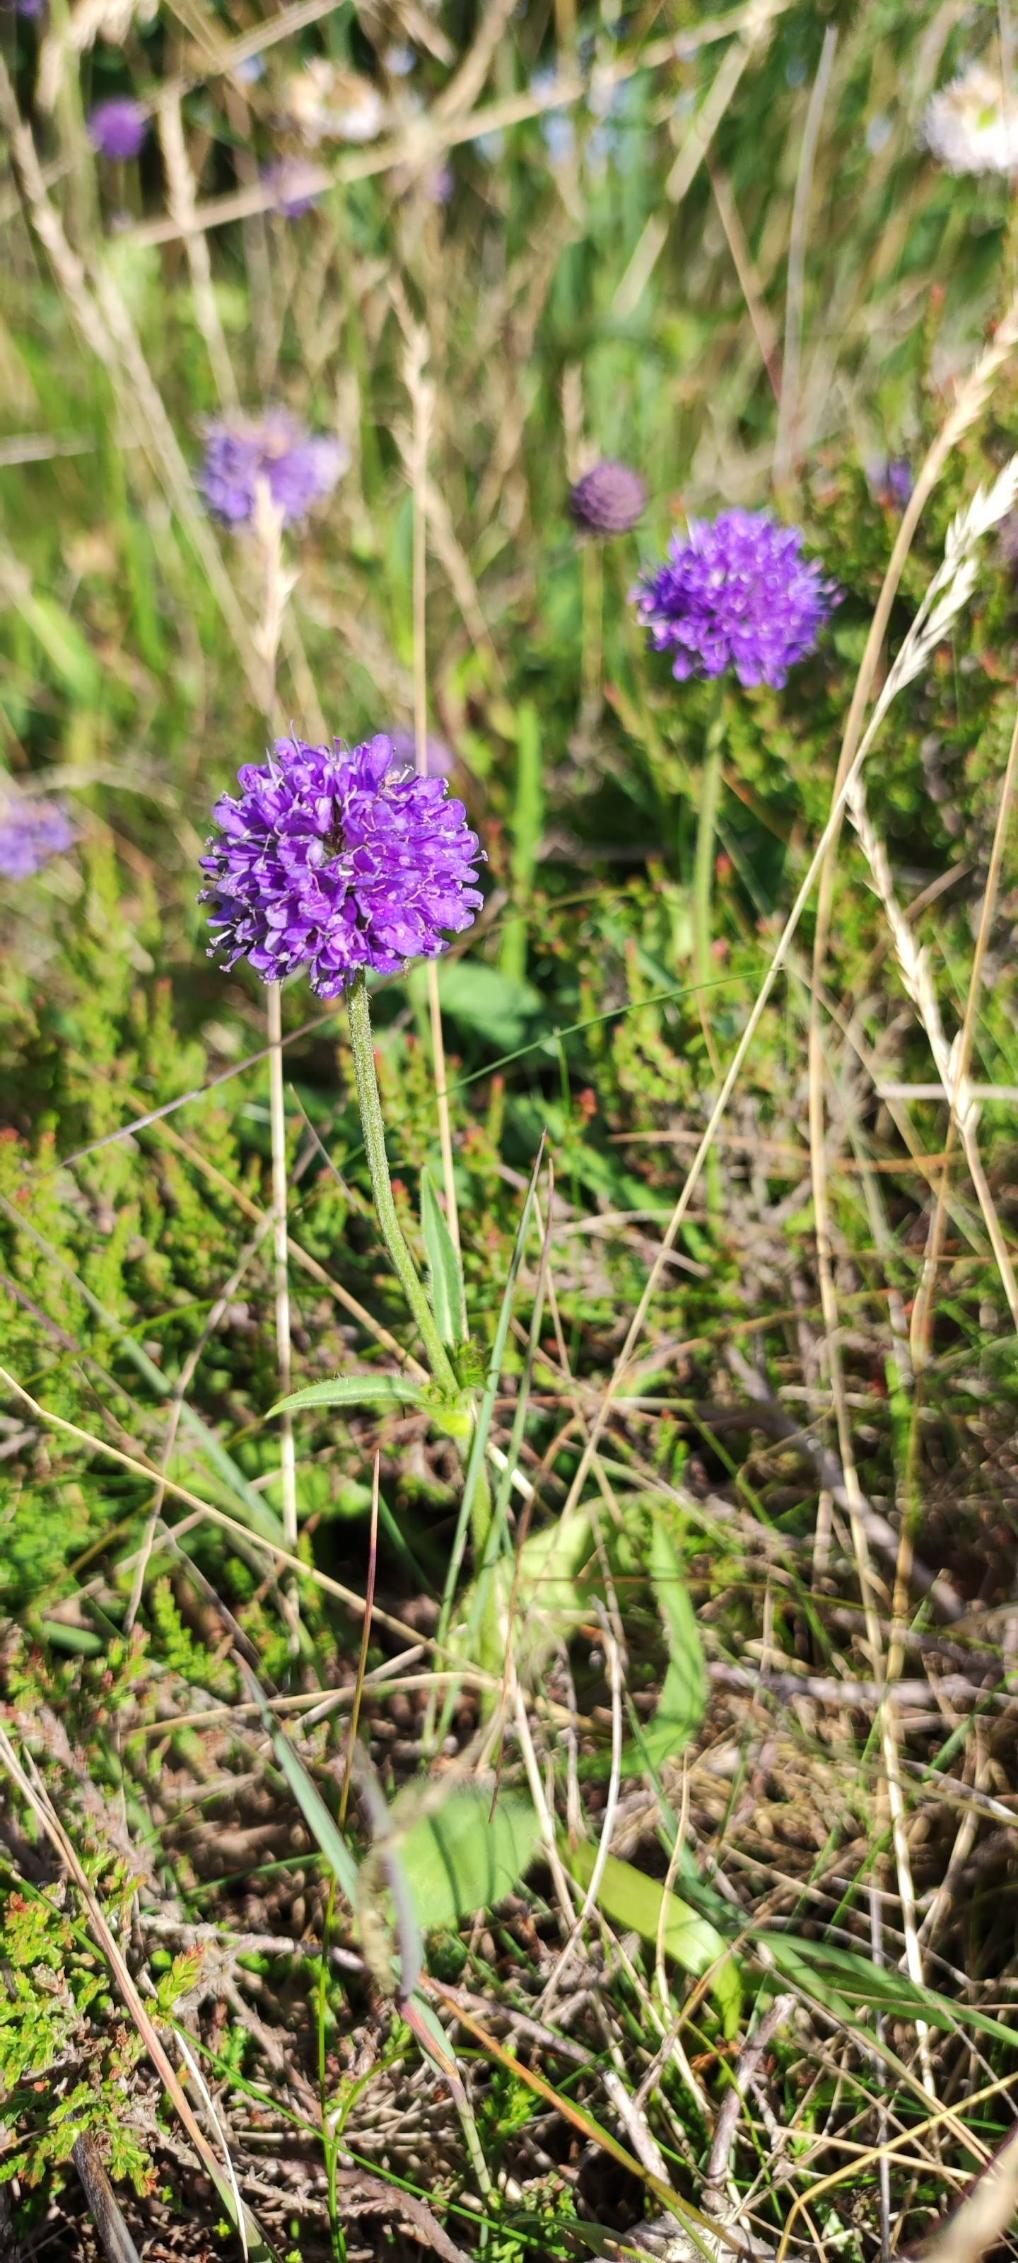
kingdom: Plantae
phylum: Tracheophyta
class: Magnoliopsida
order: Dipsacales
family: Caprifoliaceae
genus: Succisa
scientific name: Succisa pratensis
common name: Djævelsbid
